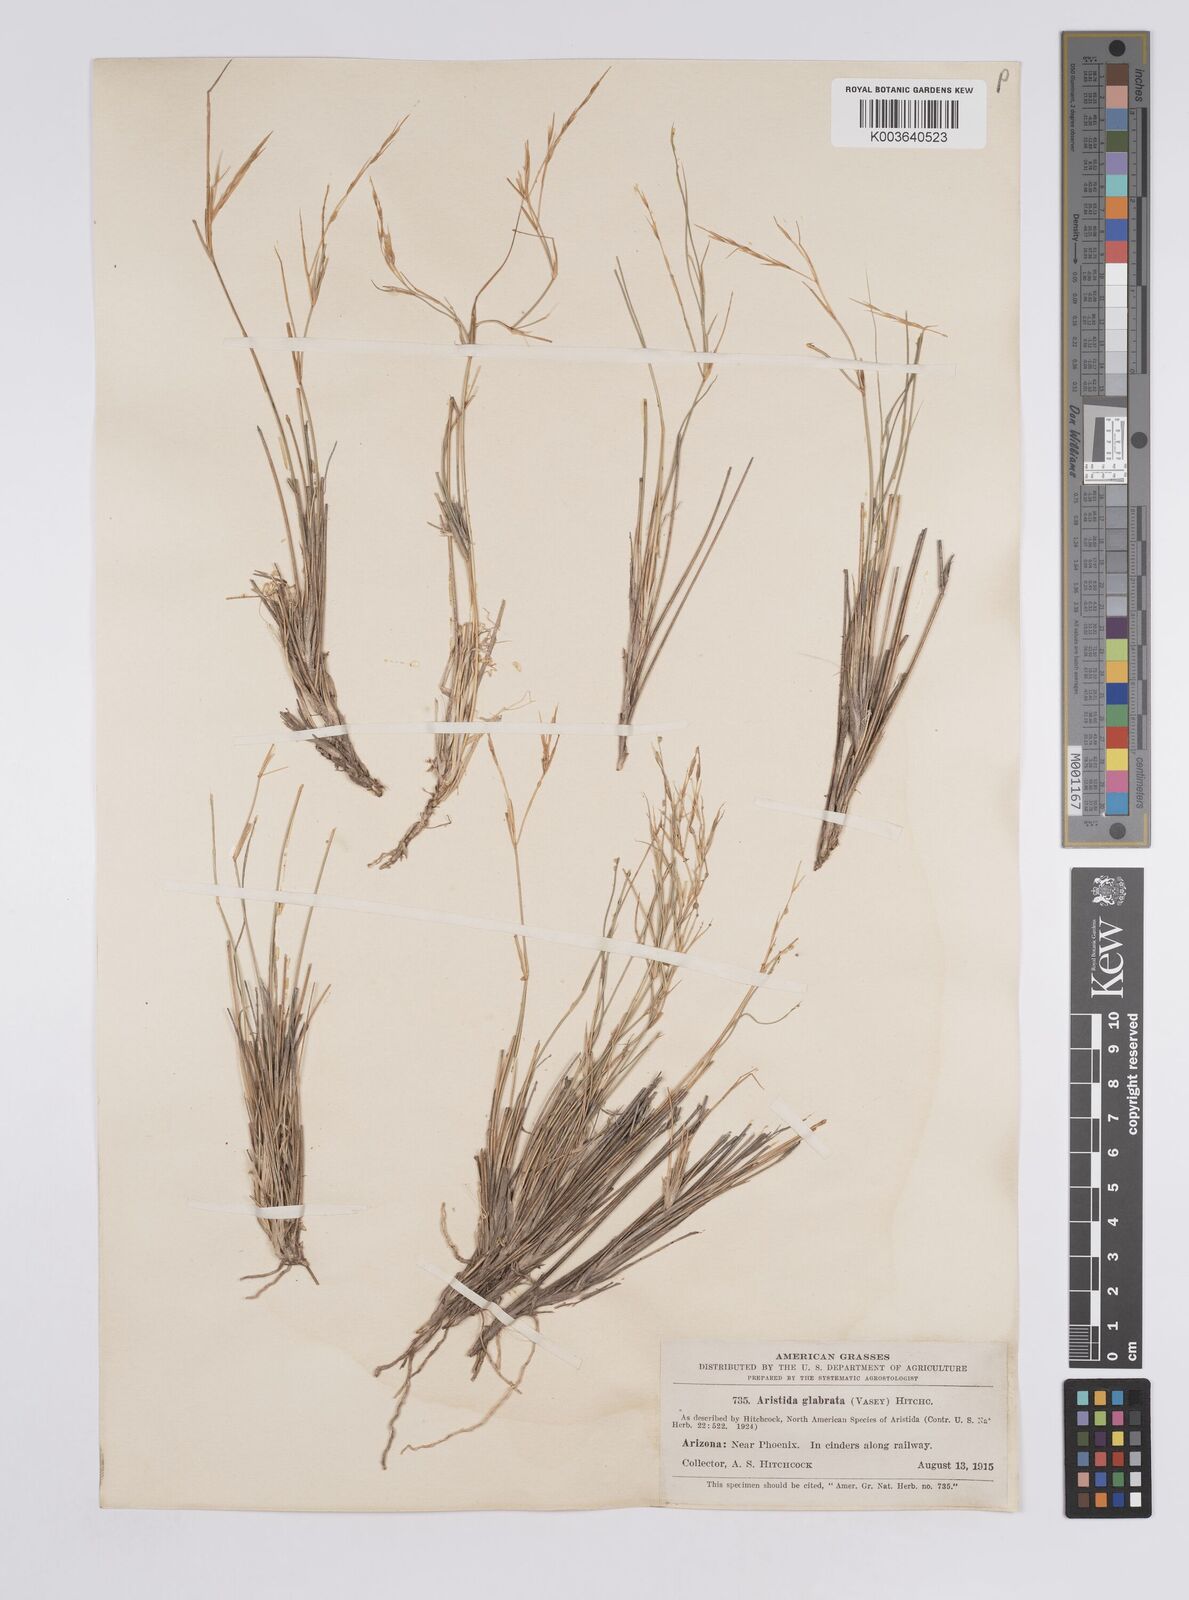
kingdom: Plantae
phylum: Tracheophyta
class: Liliopsida
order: Poales
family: Poaceae
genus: Aristida
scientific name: Aristida californica
